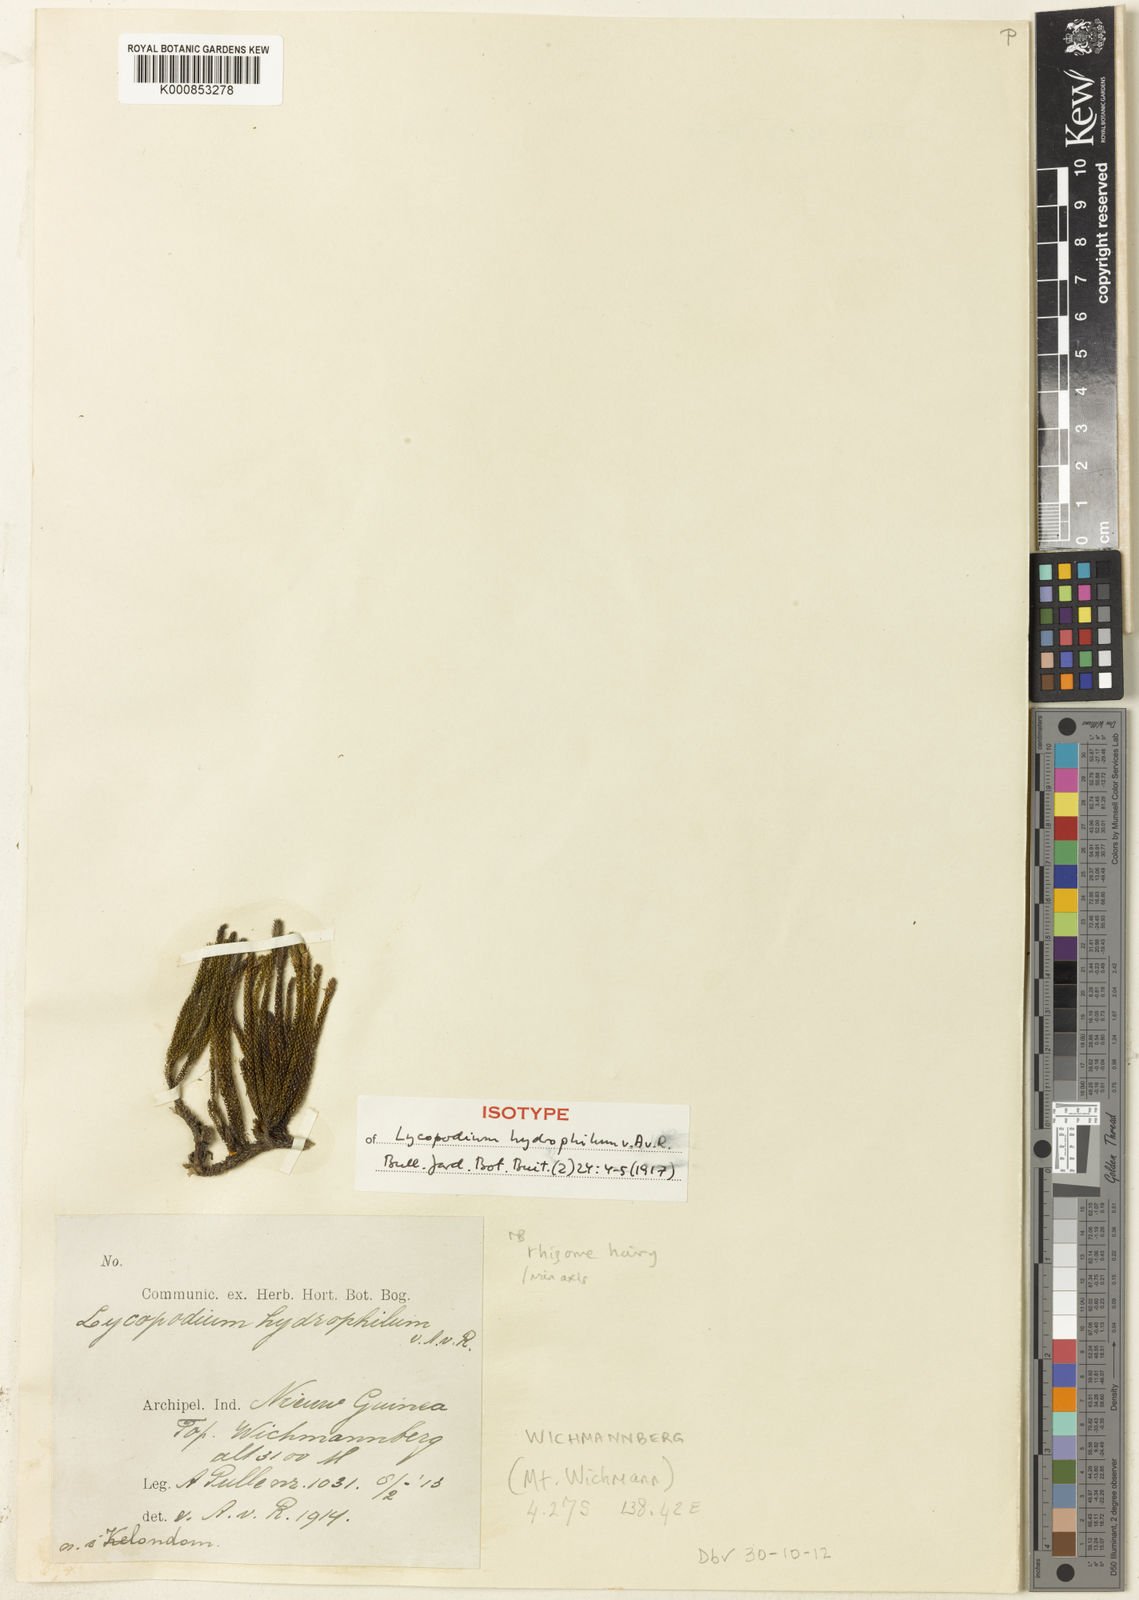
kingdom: Plantae
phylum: Tracheophyta
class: Lycopodiopsida
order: Lycopodiales
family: Lycopodiaceae
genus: Palhinhaea
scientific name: Palhinhaea hydrophila
